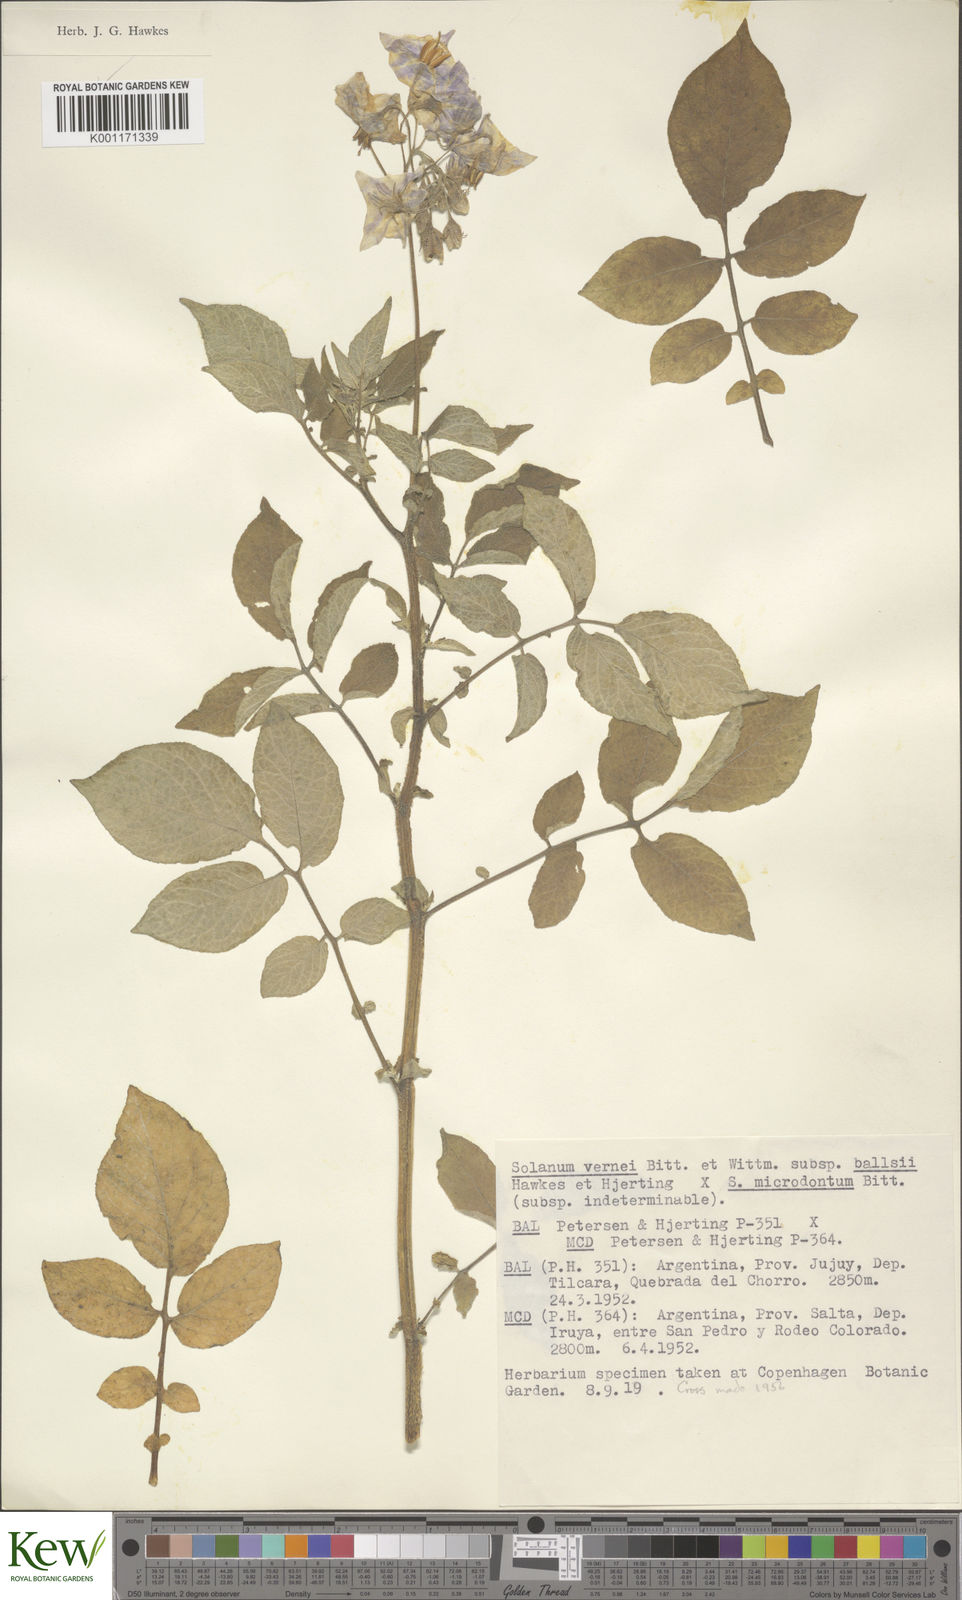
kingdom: Plantae
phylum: Tracheophyta
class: Magnoliopsida
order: Solanales
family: Solanaceae
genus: Solanum
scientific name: Solanum vernei
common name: Purple potato
